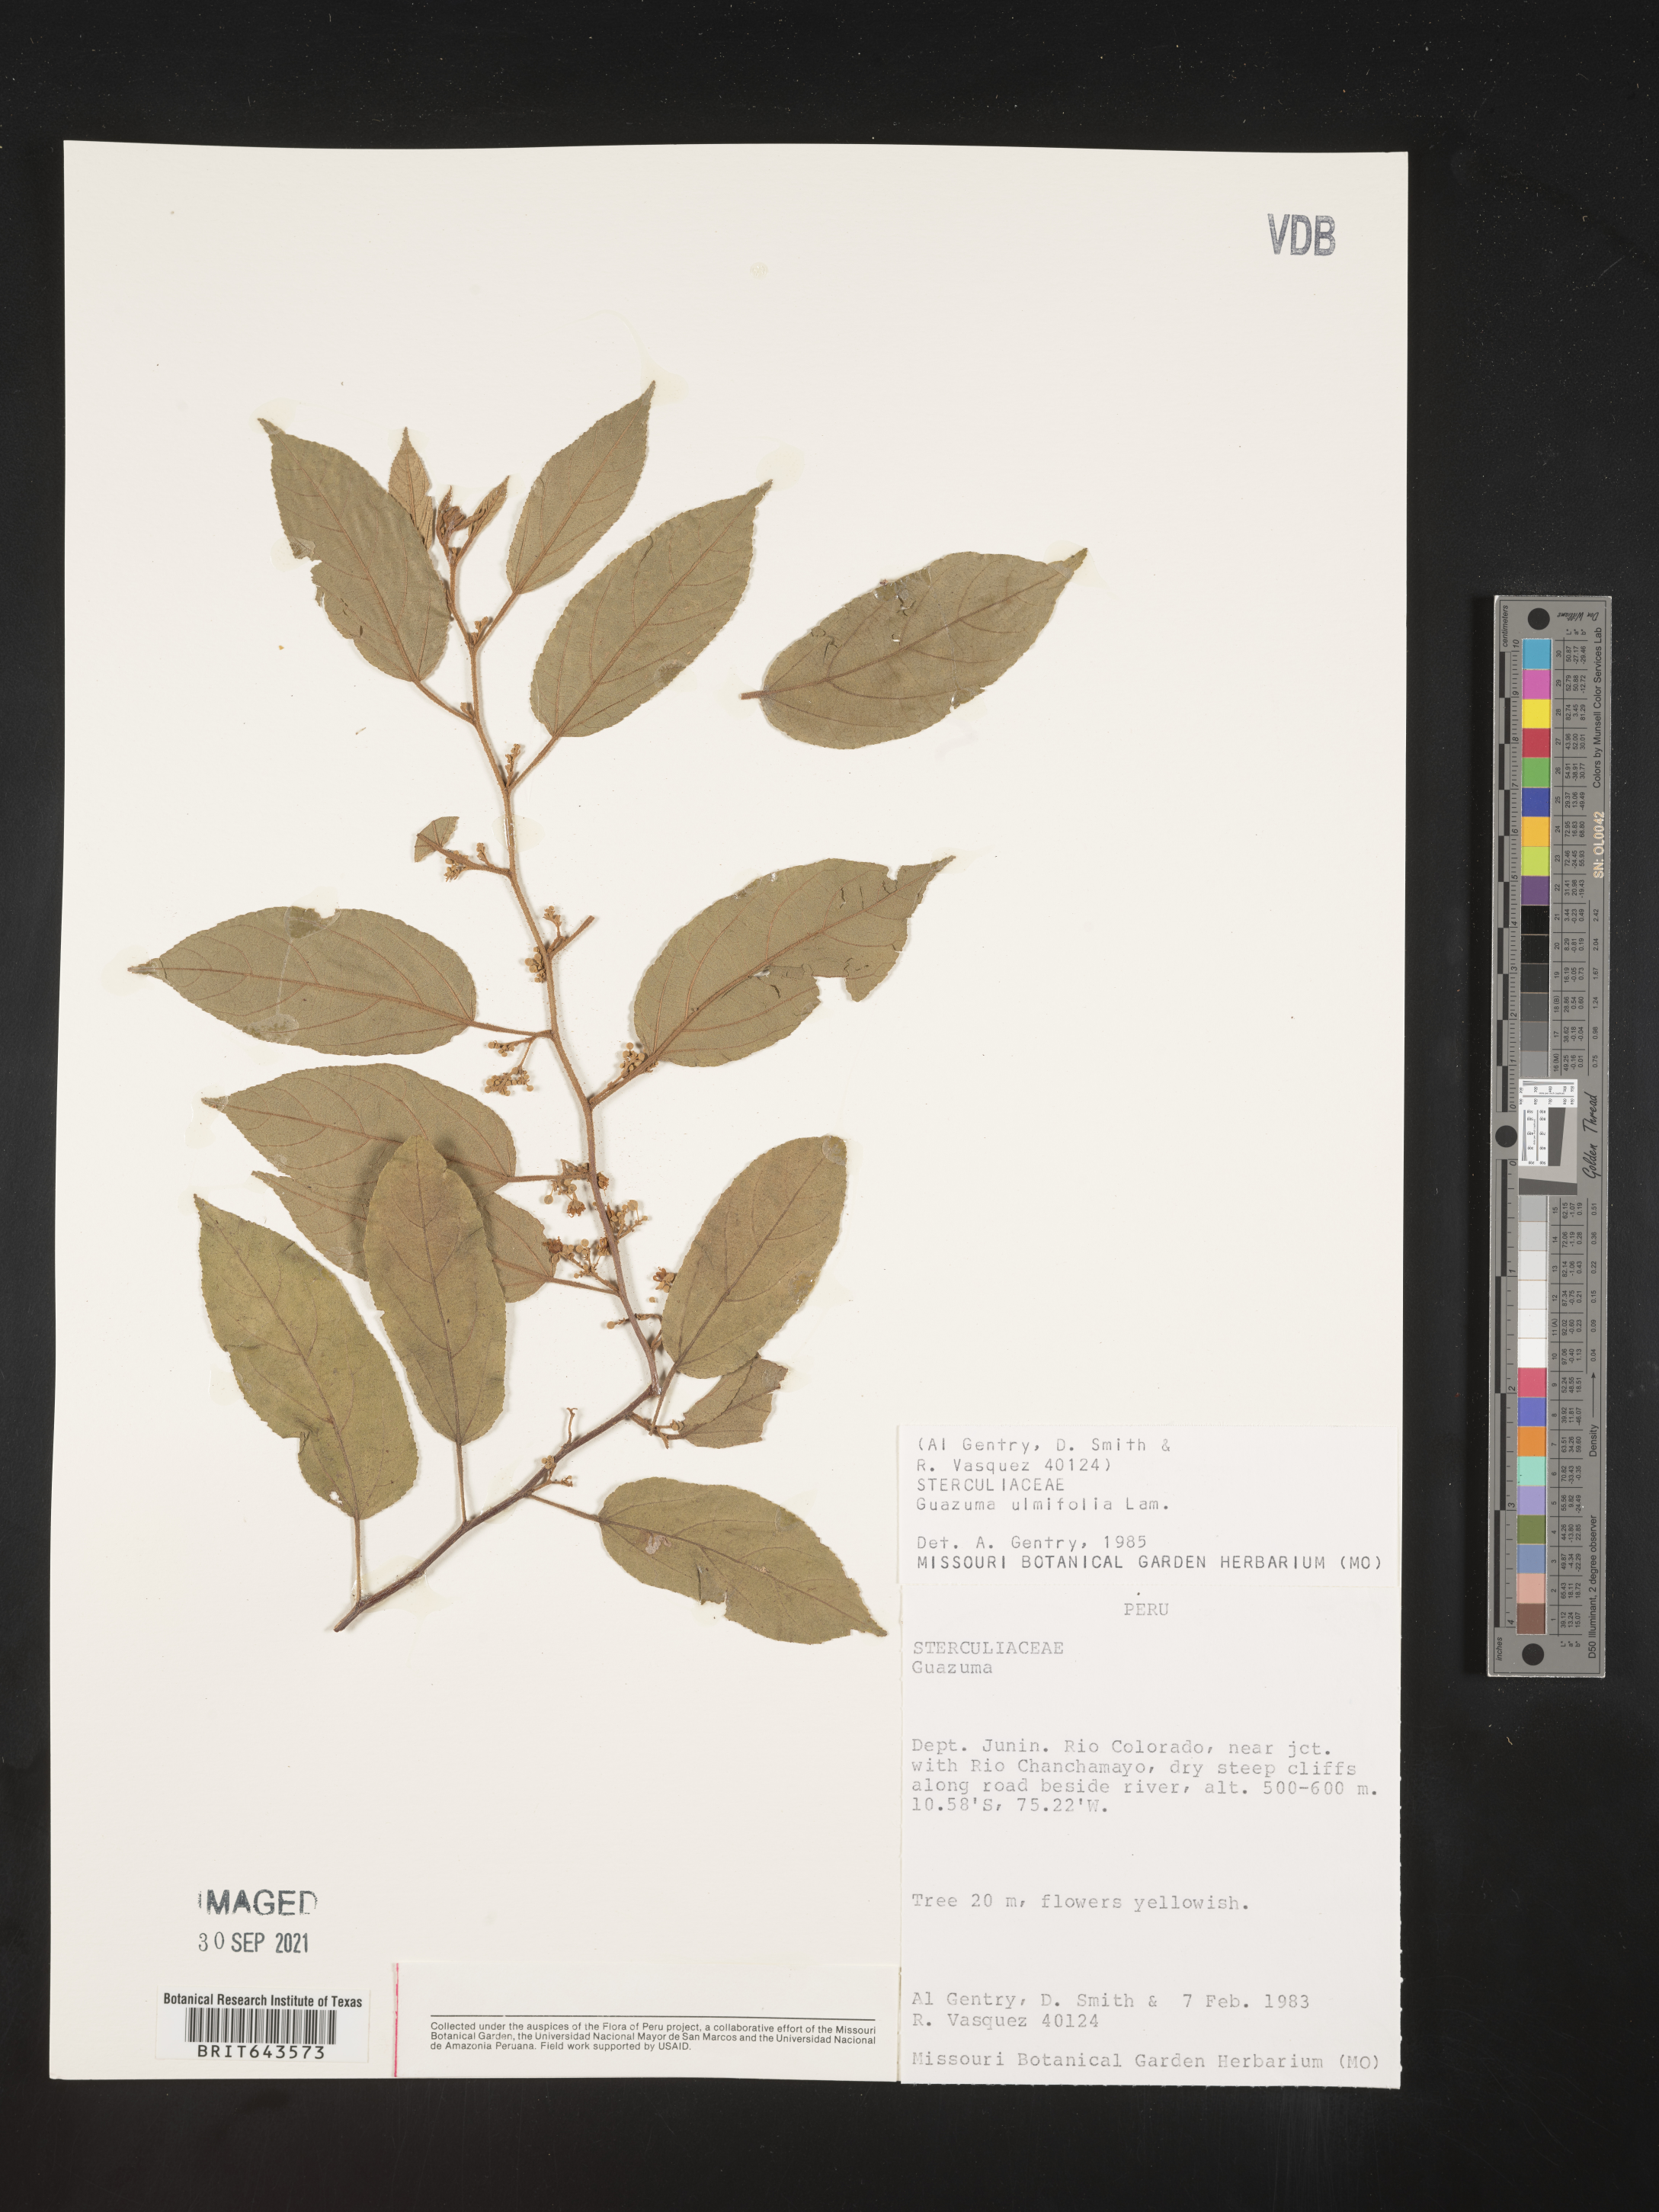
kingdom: Plantae
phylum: Tracheophyta
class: Magnoliopsida
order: Malvales
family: Malvaceae
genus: Guazuma
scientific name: Guazuma
